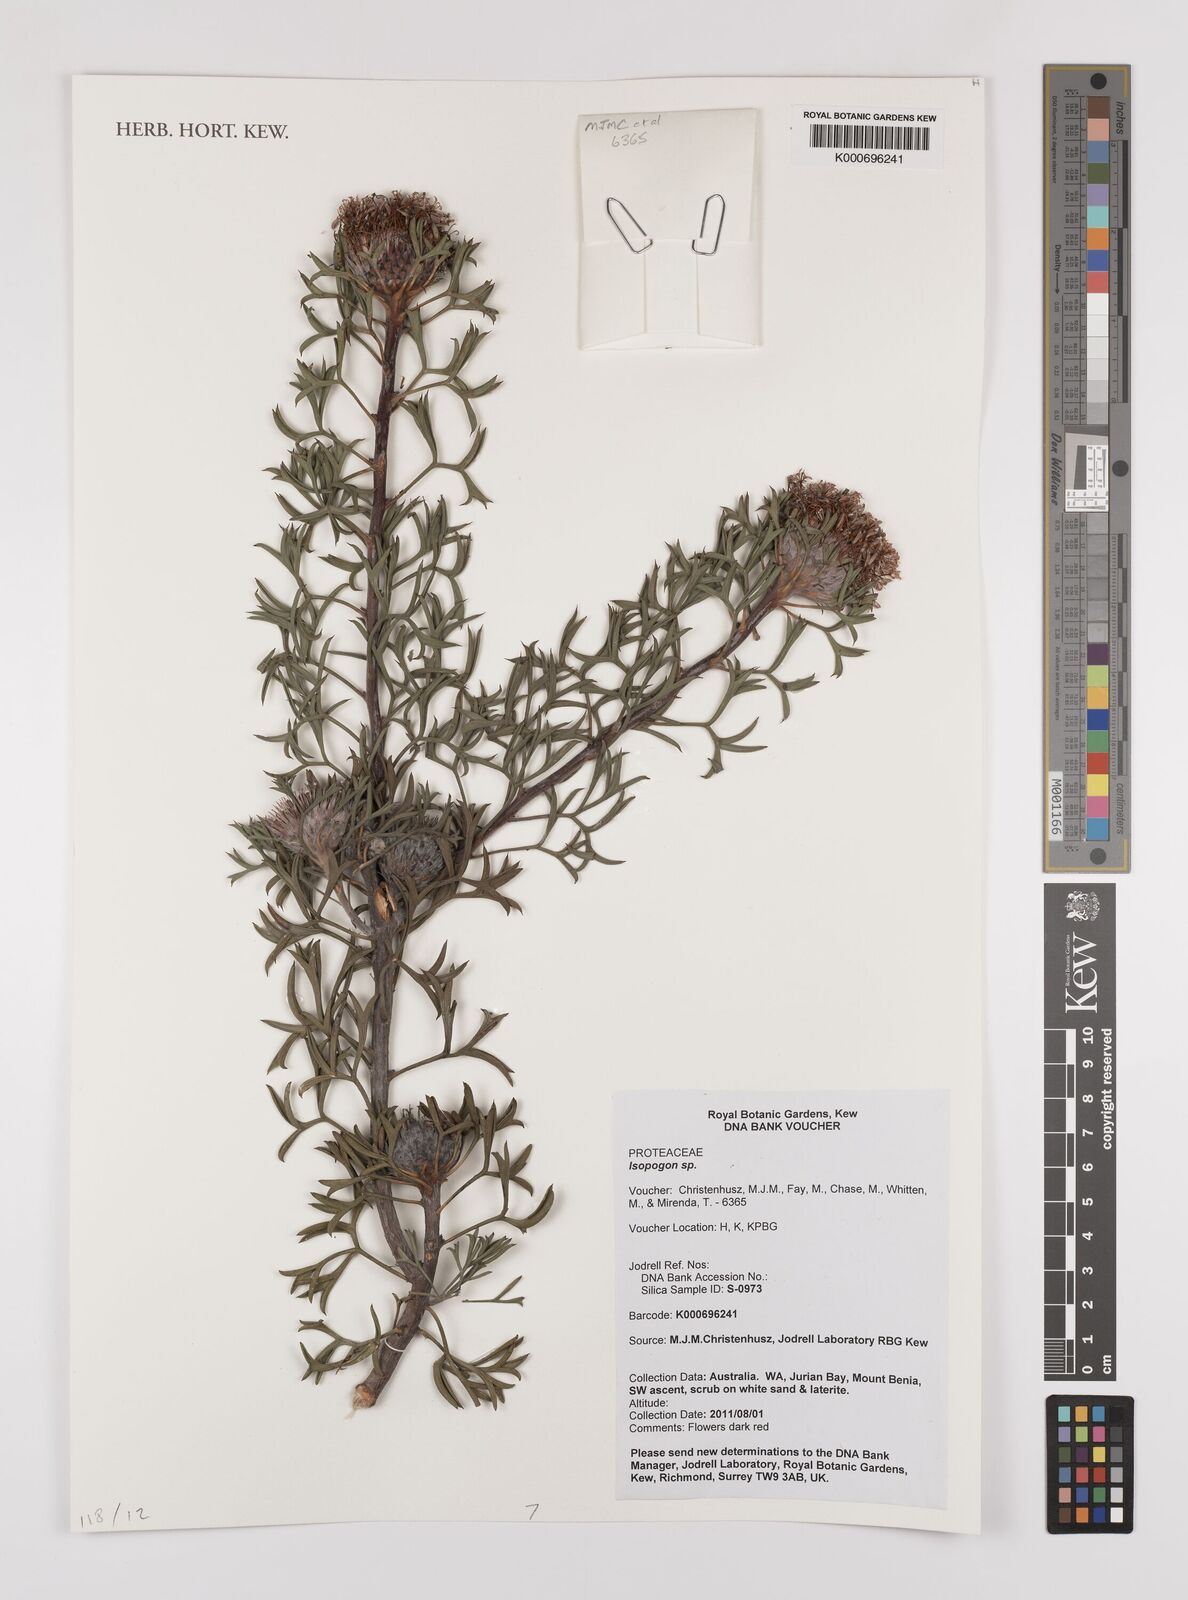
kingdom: Plantae
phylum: Tracheophyta
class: Magnoliopsida
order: Proteales
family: Proteaceae
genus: Isopogon
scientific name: Isopogon
